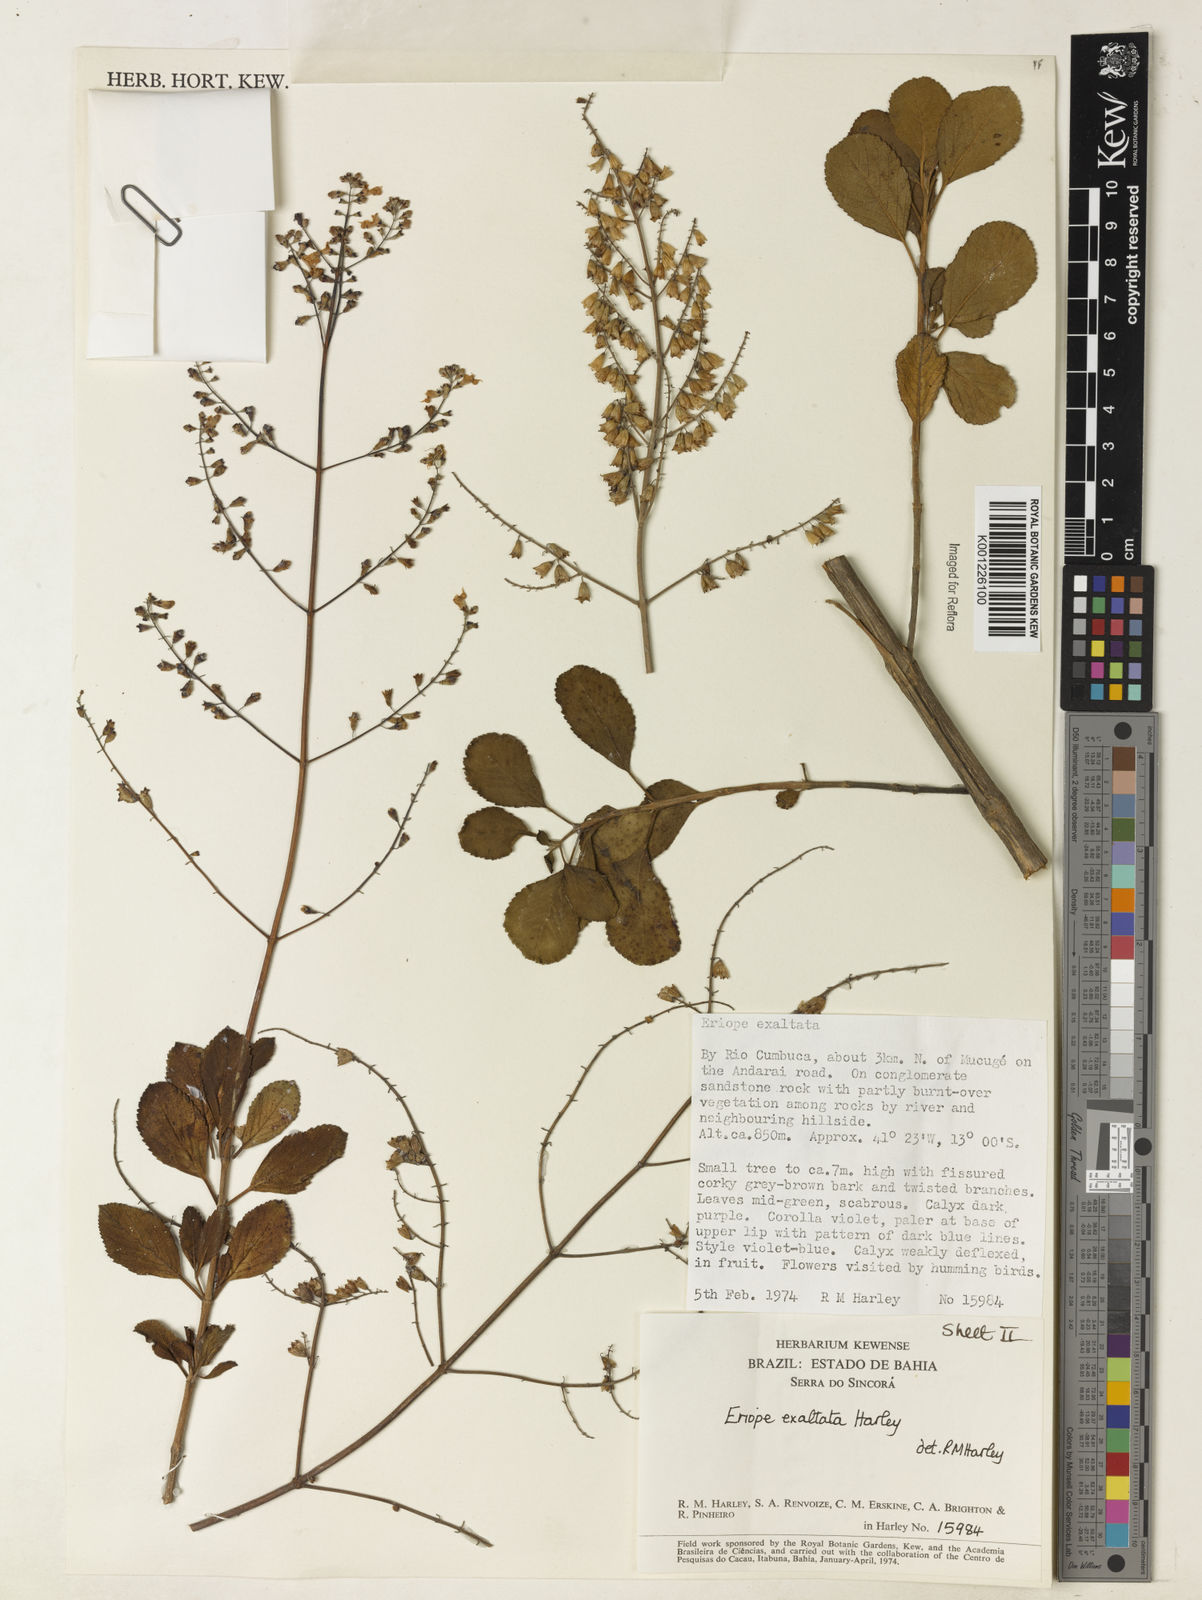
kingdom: Plantae
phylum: Tracheophyta
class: Magnoliopsida
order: Lamiales
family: Lamiaceae
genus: Eriope
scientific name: Eriope exaltata
